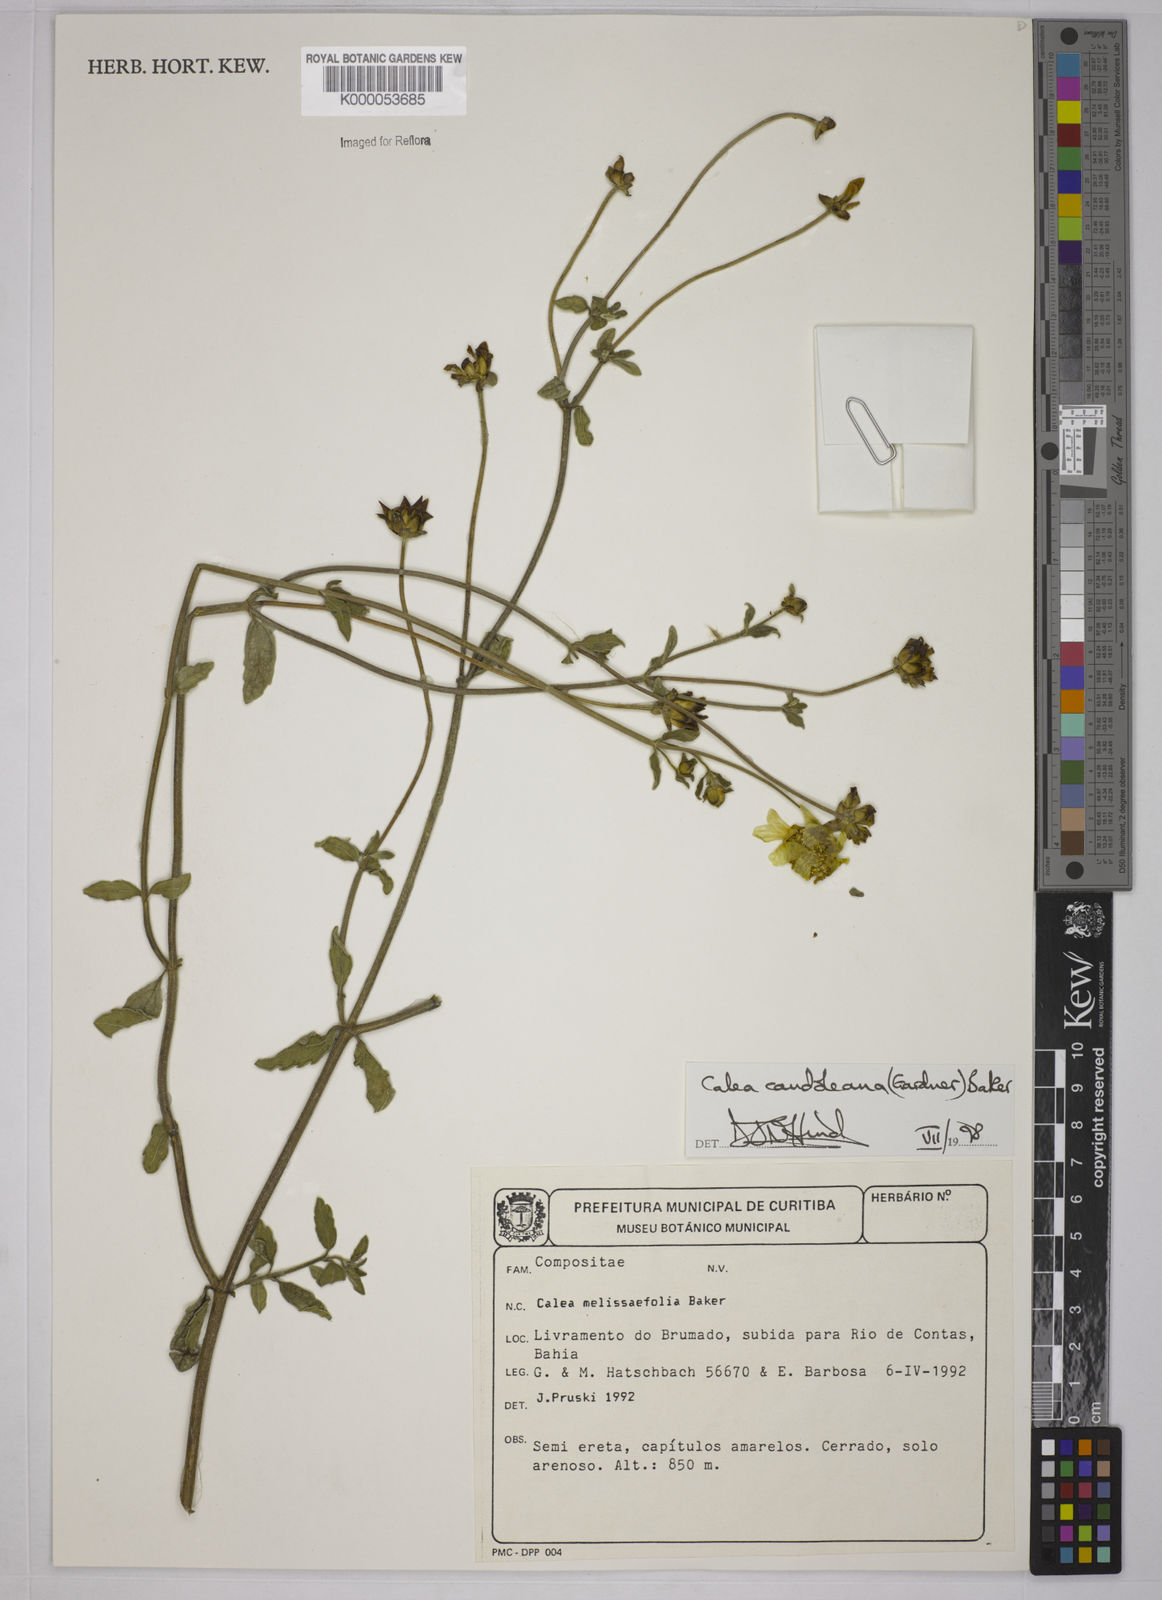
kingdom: Plantae
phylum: Tracheophyta
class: Magnoliopsida
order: Asterales
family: Asteraceae
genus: Calea
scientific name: Calea candolleana
